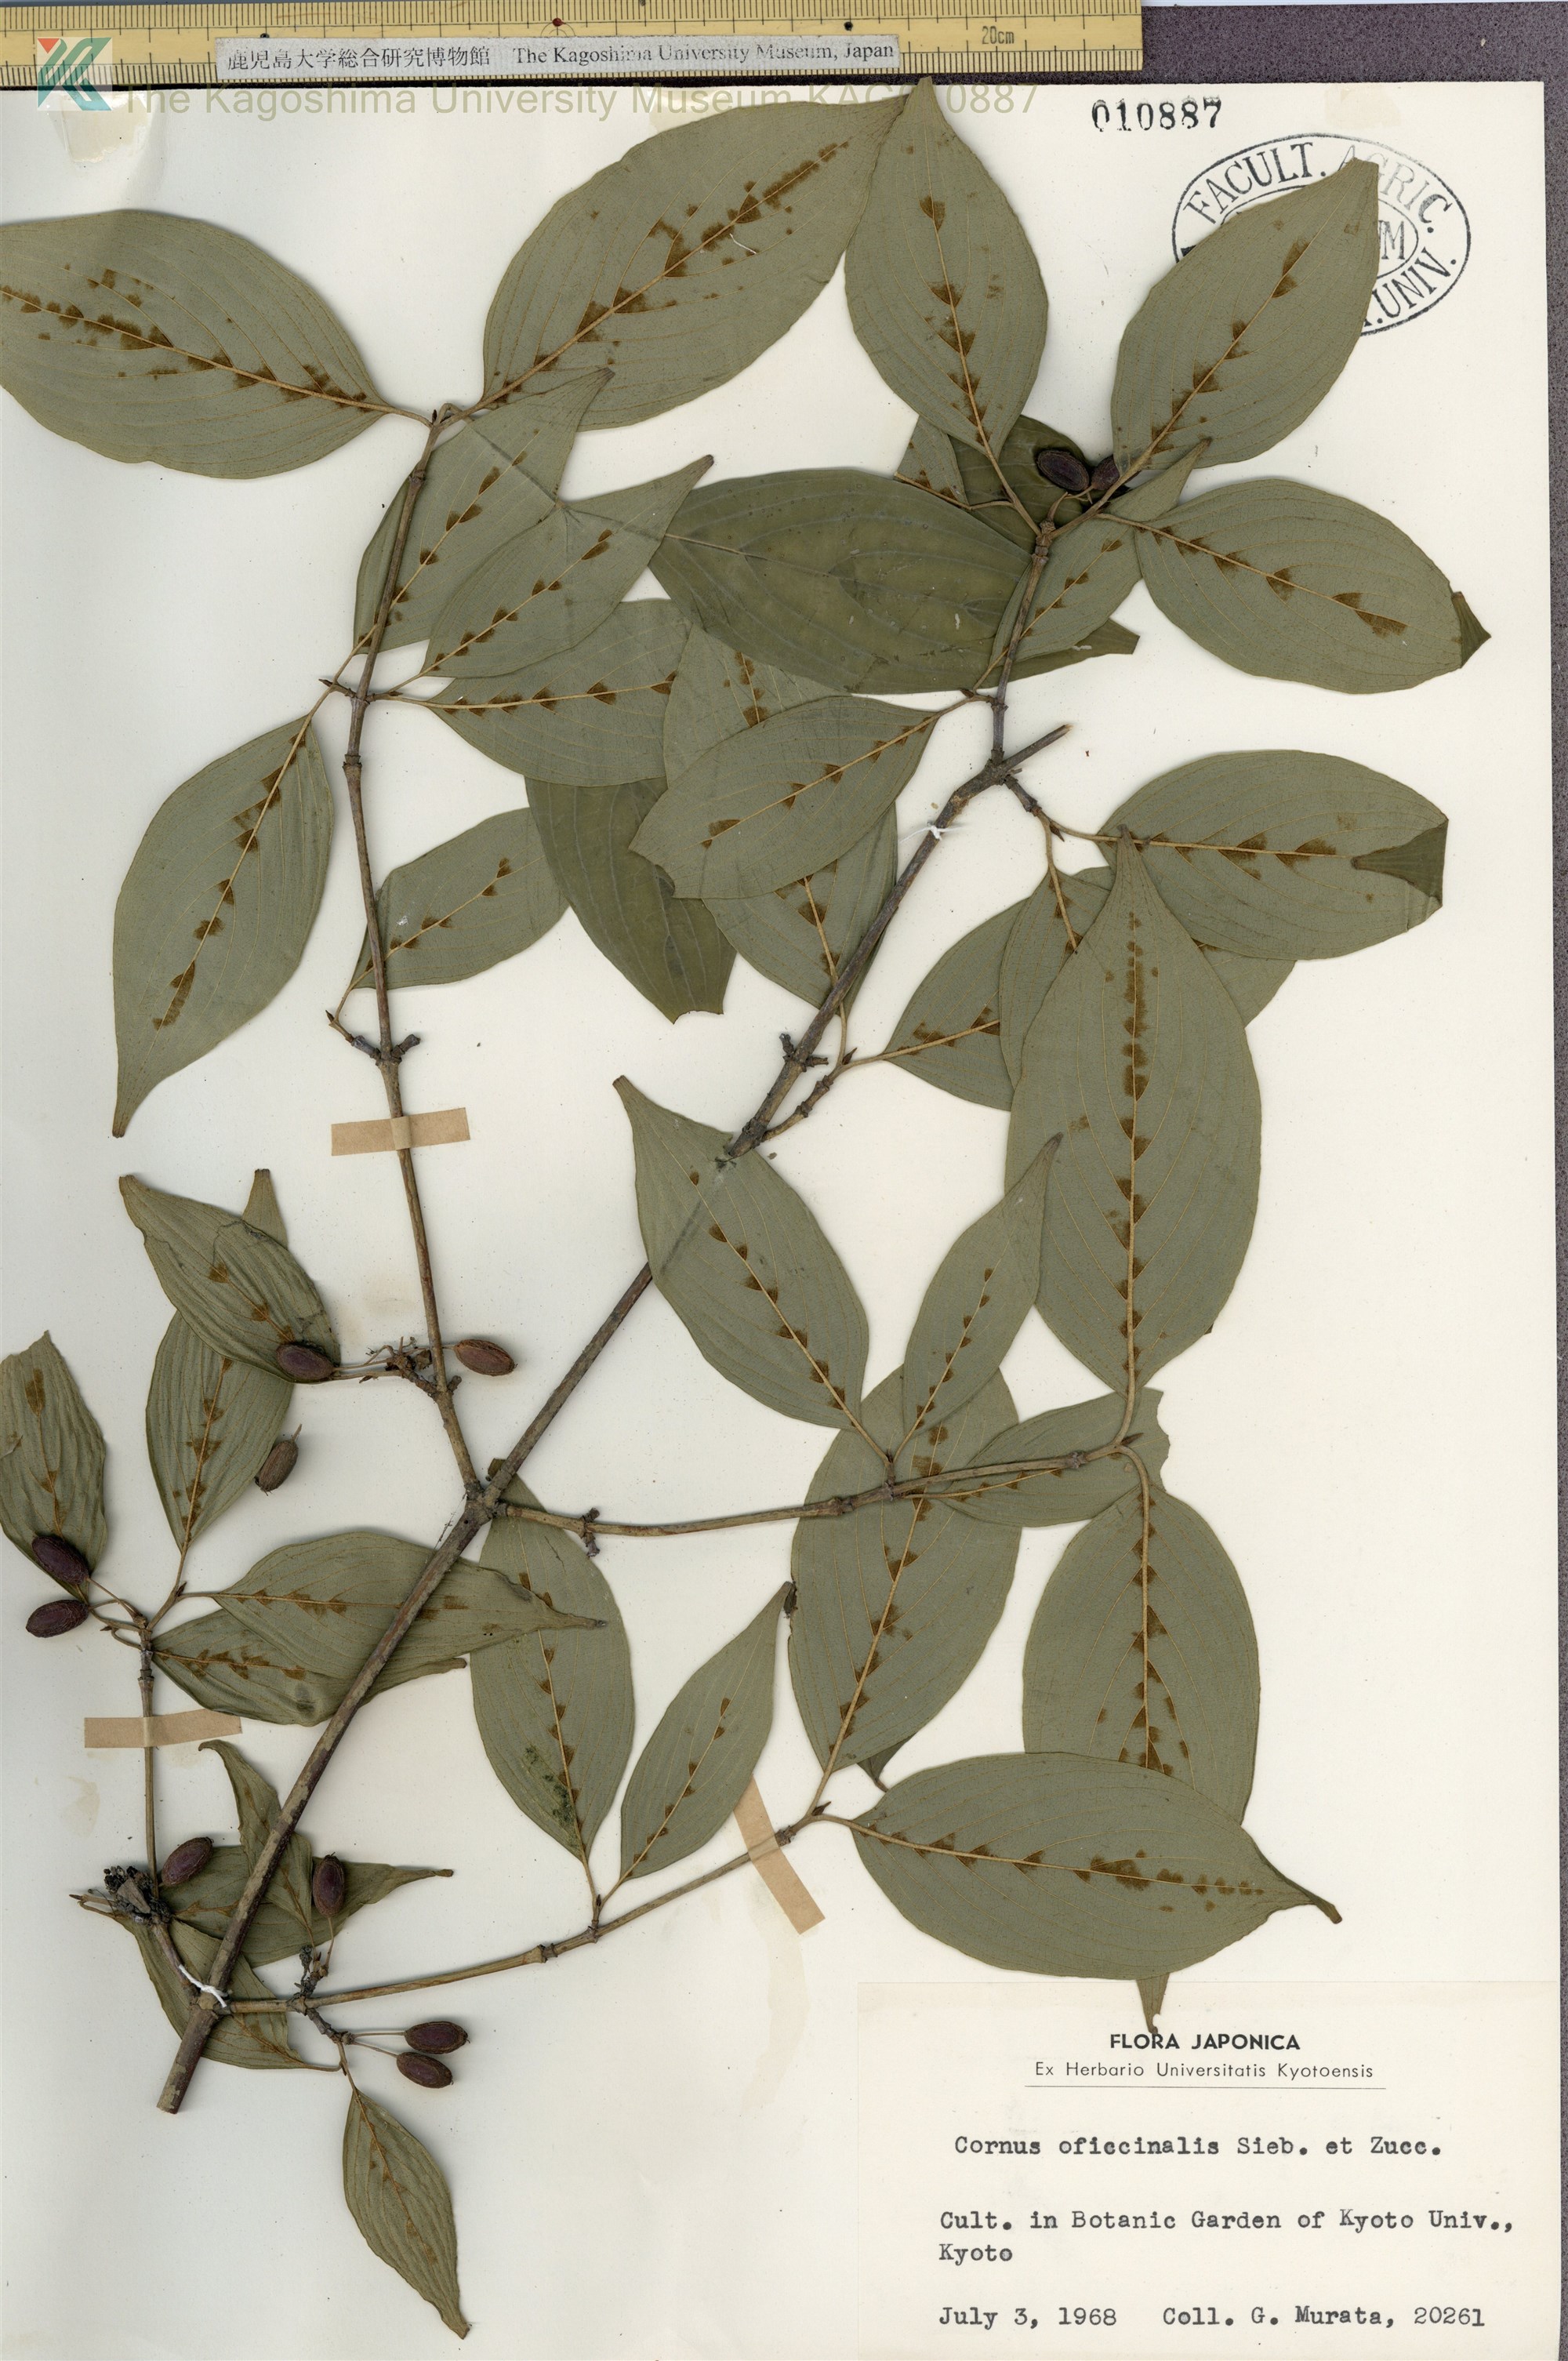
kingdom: Plantae
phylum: Tracheophyta
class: Magnoliopsida
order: Cornales
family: Cornaceae
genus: Cornus
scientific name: Cornus officinalis
